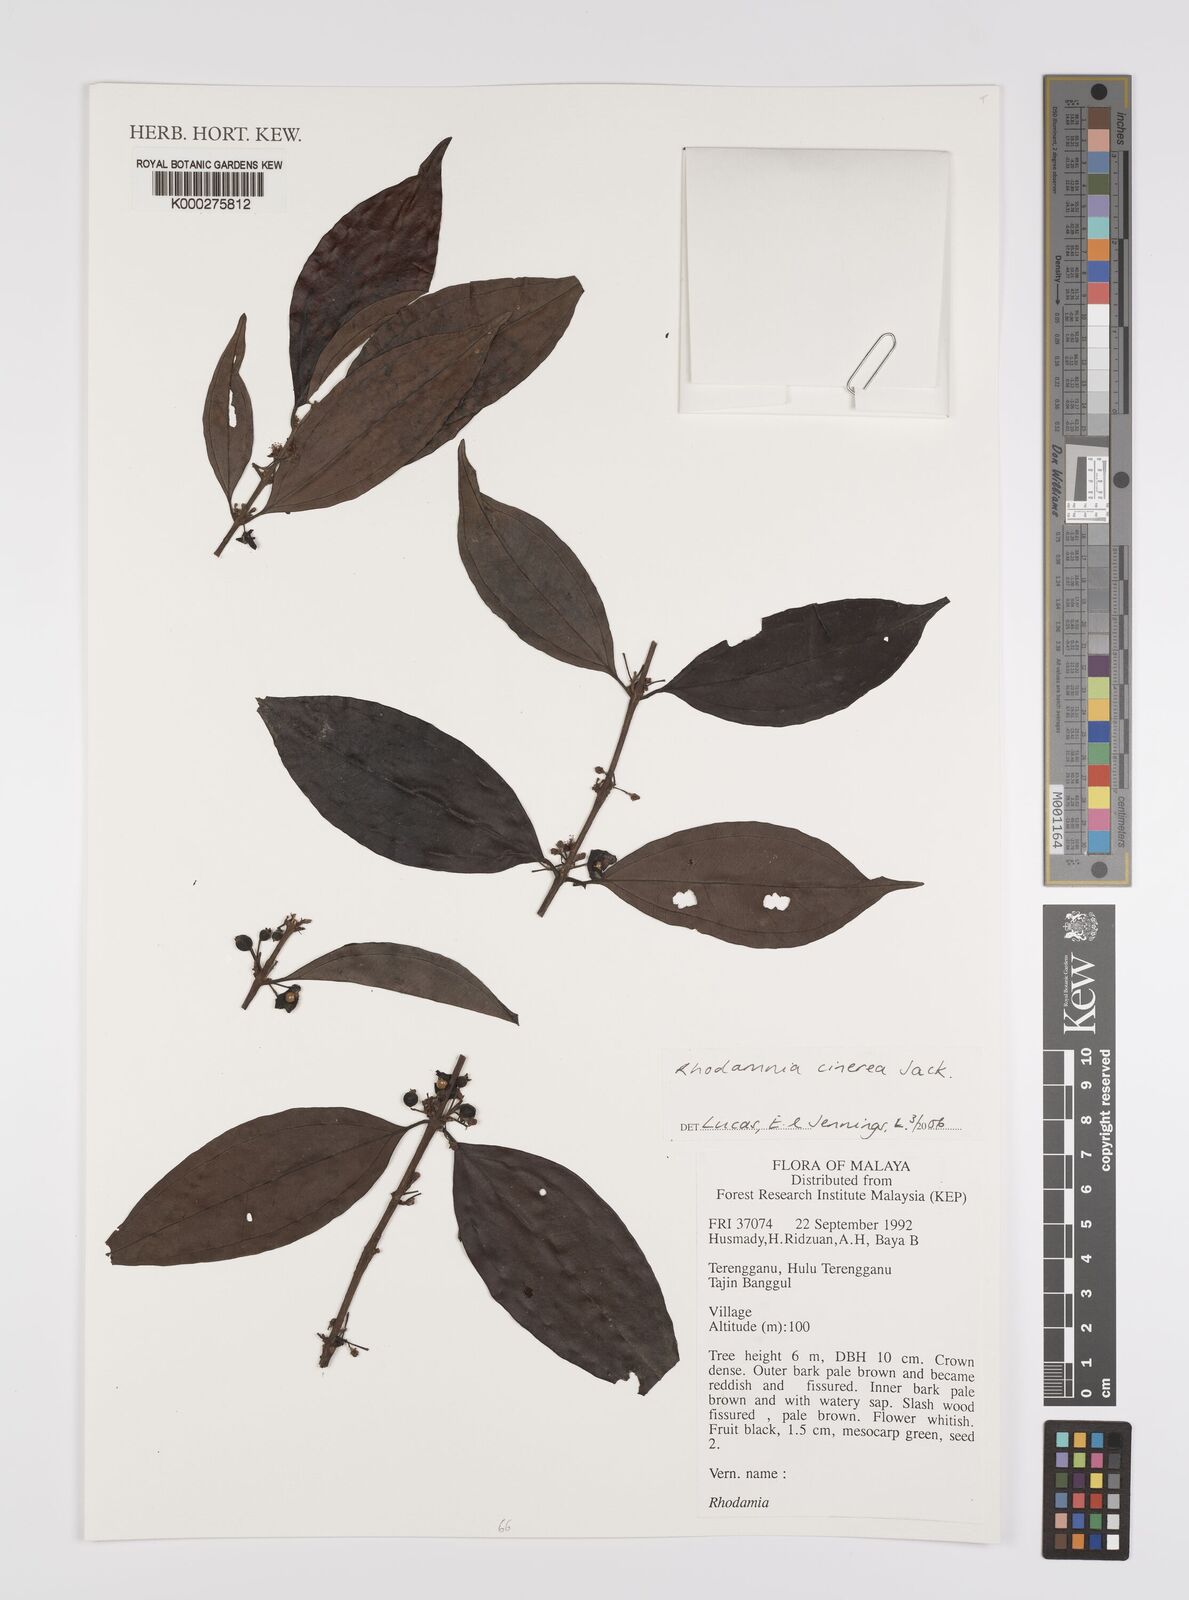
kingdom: Plantae
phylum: Tracheophyta
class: Magnoliopsida
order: Myrtales
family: Myrtaceae
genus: Rhodamnia
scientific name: Rhodamnia cinerea
